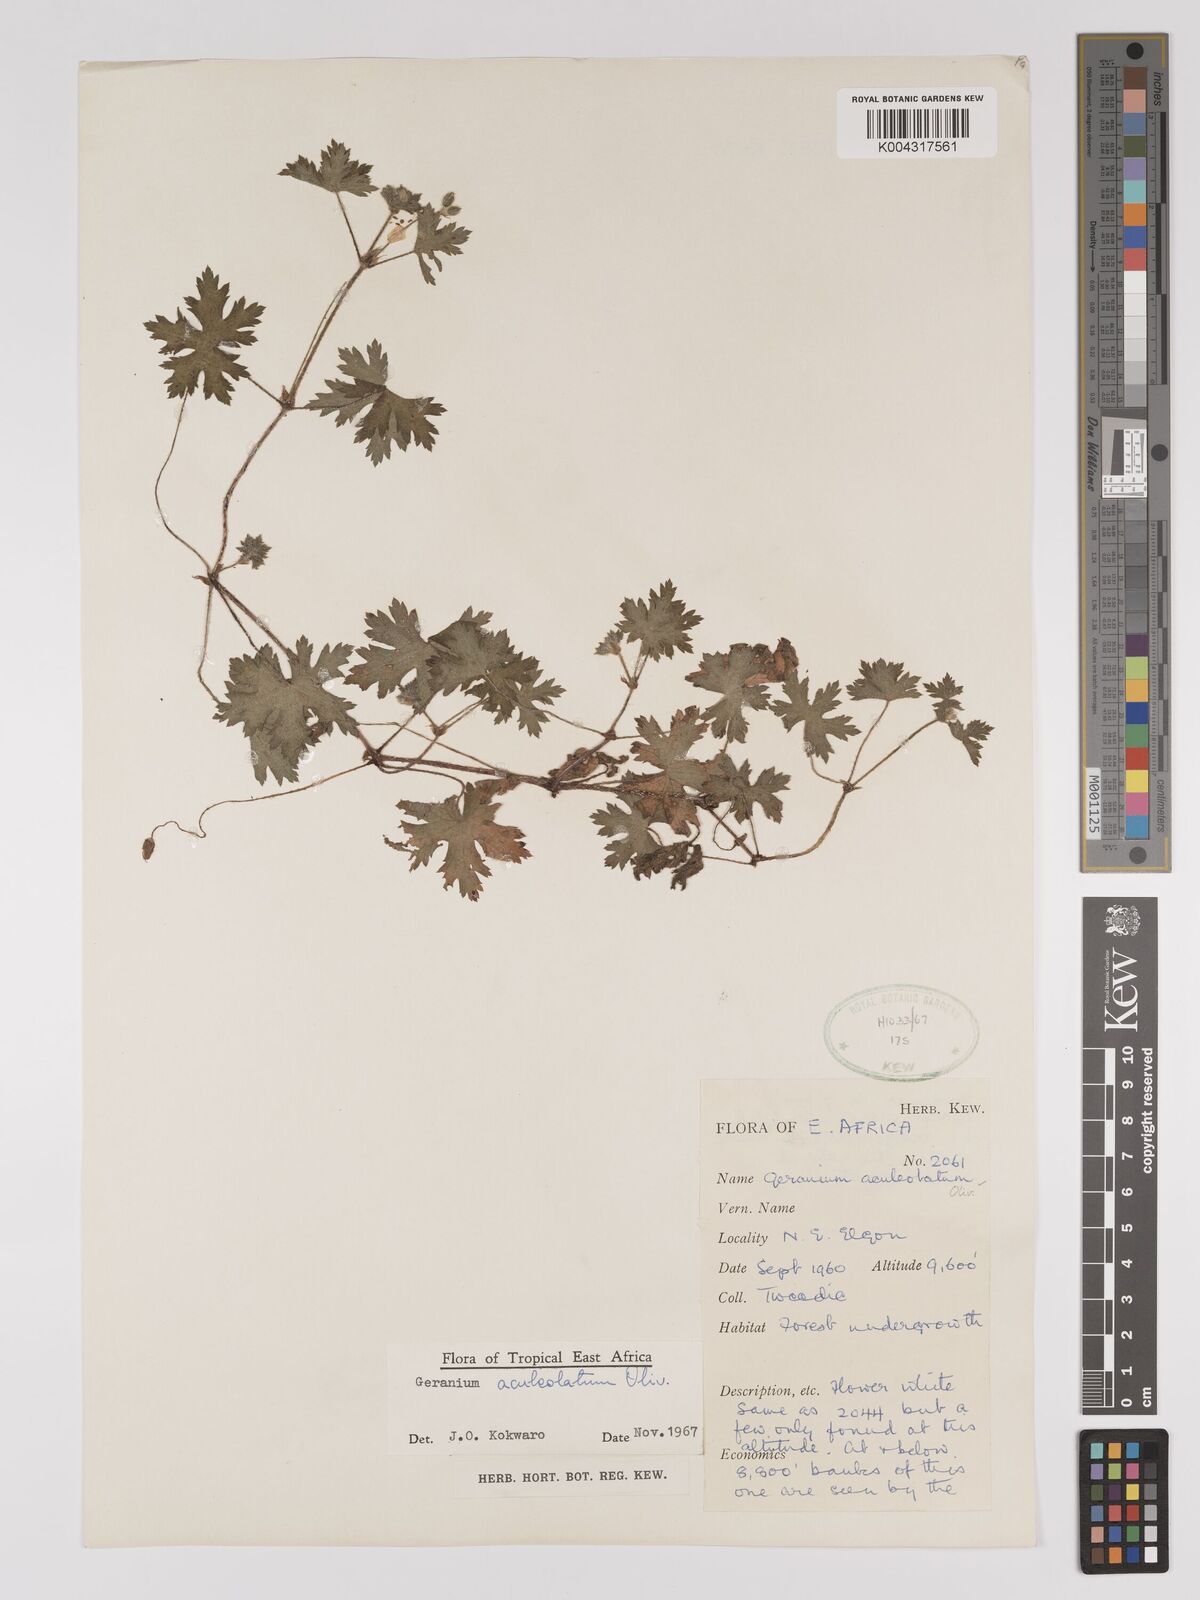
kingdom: Plantae
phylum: Tracheophyta
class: Magnoliopsida
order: Geraniales
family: Geraniaceae
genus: Geranium
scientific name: Geranium aculeolatum
